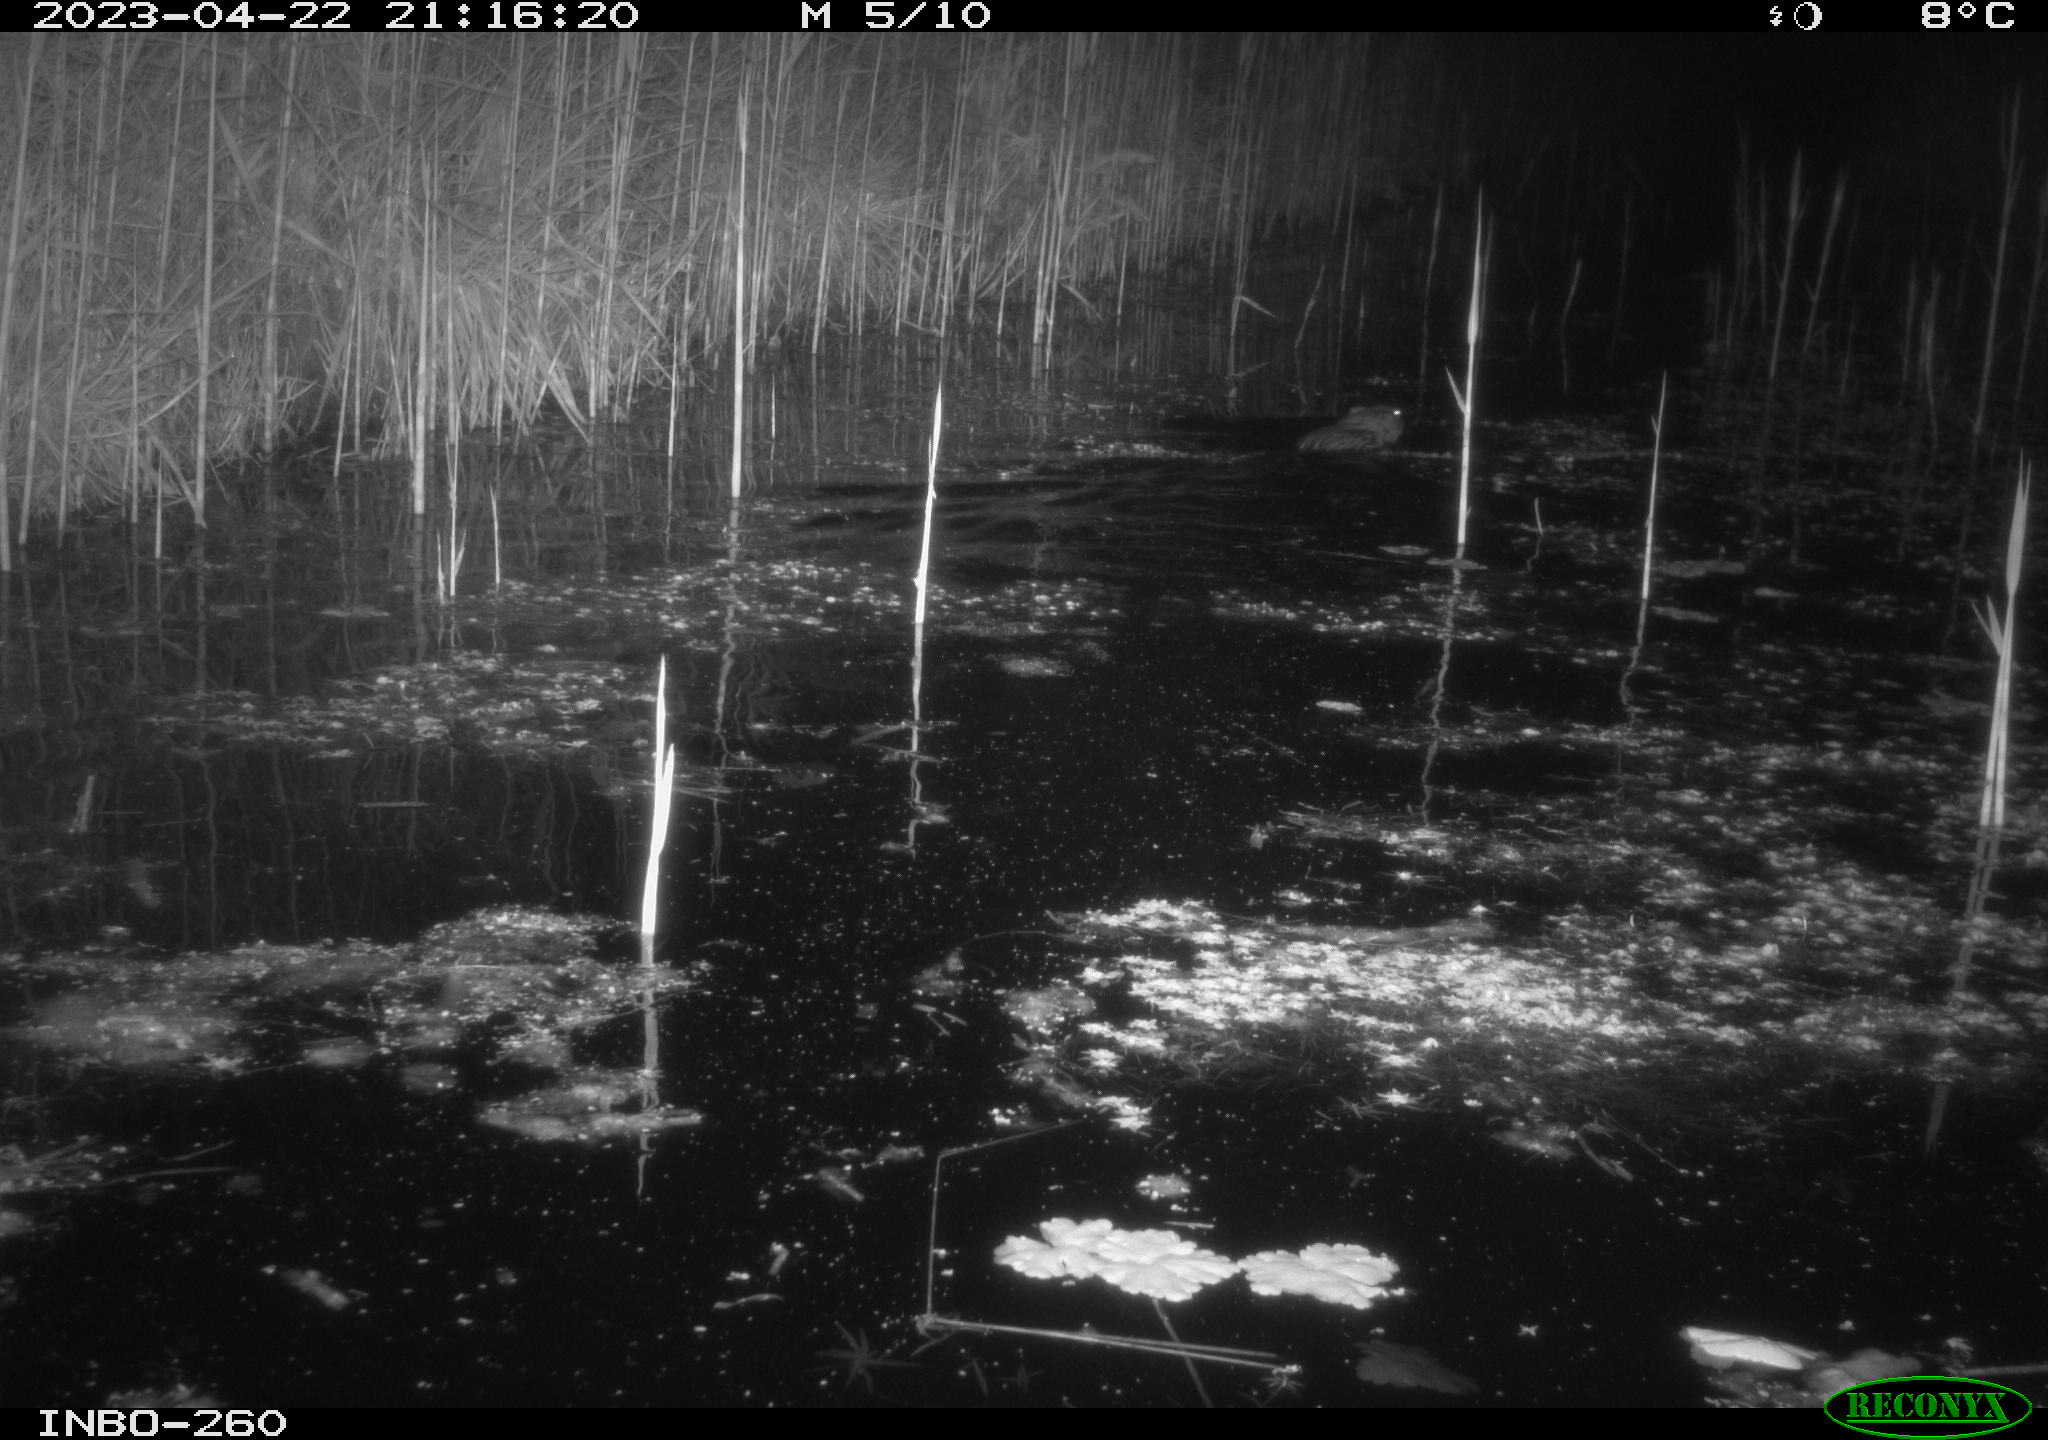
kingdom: Animalia
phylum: Chordata
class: Mammalia
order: Rodentia
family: Cricetidae
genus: Ondatra
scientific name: Ondatra zibethicus
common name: Muskrat
